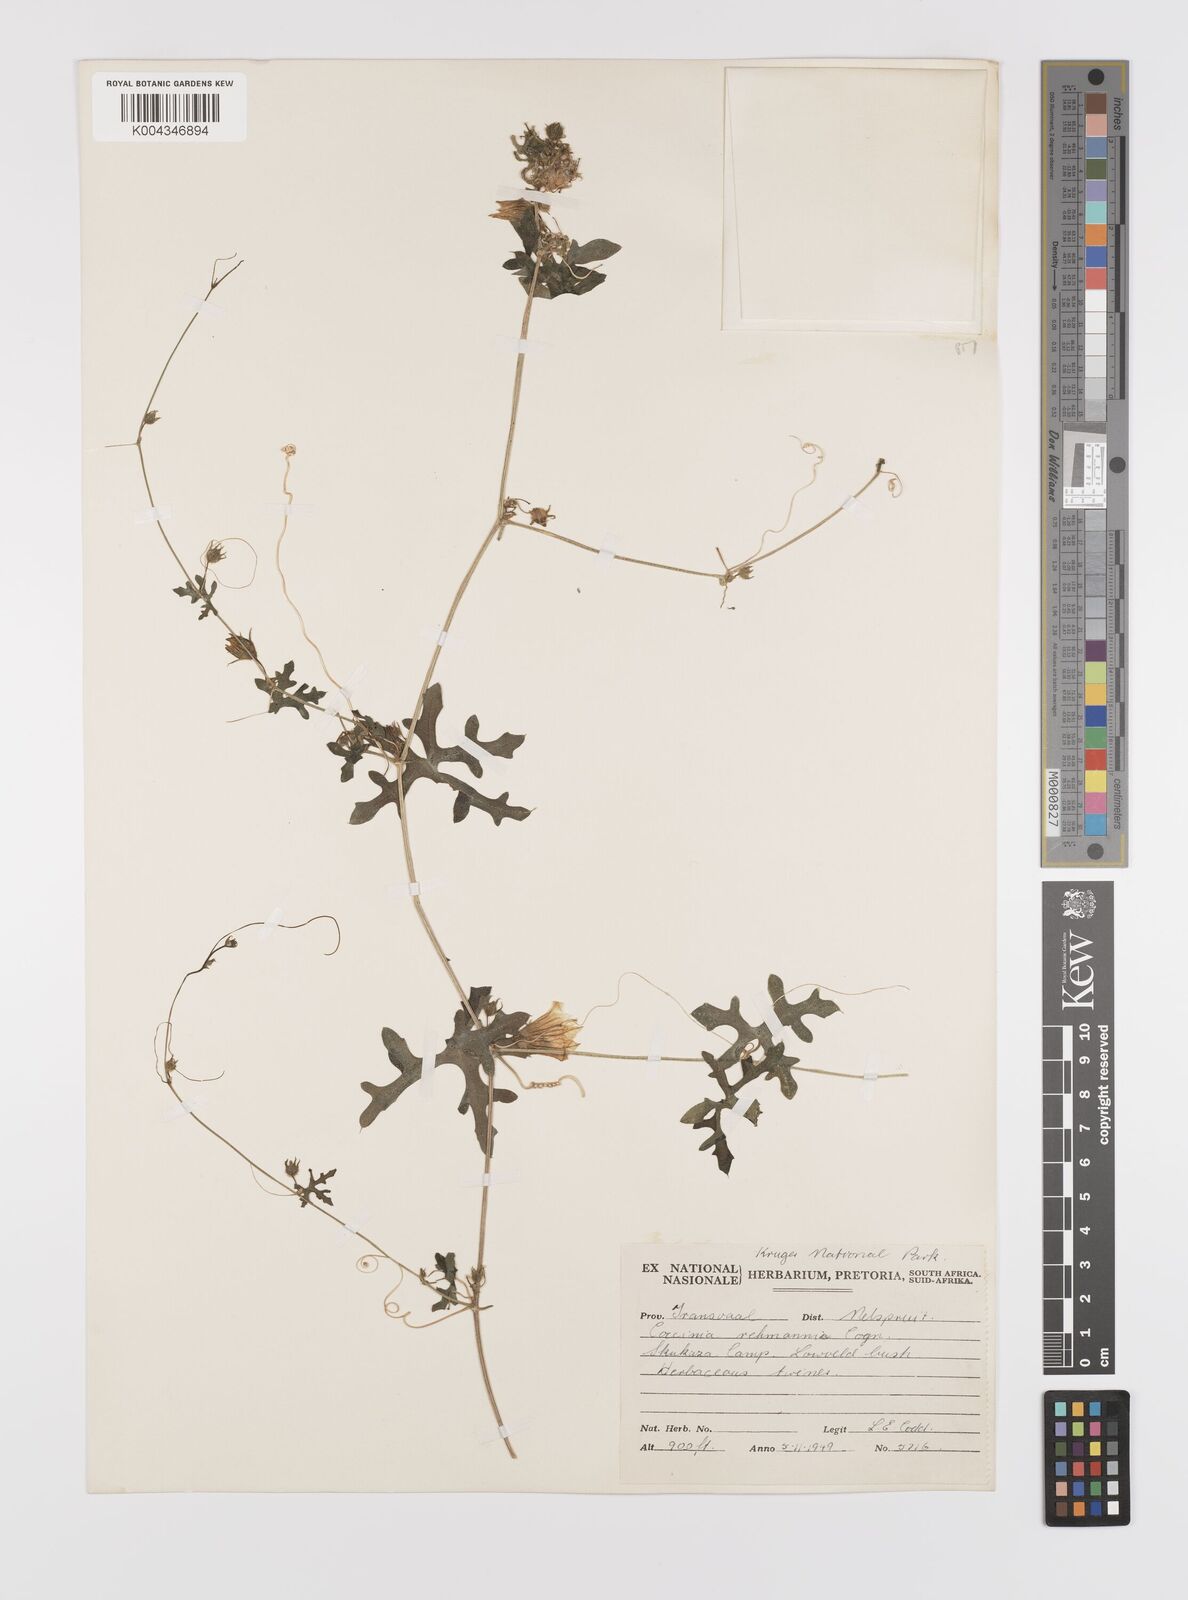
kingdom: Plantae
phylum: Tracheophyta
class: Magnoliopsida
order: Cucurbitales
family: Cucurbitaceae
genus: Coccinia
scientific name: Coccinia rehmannii
